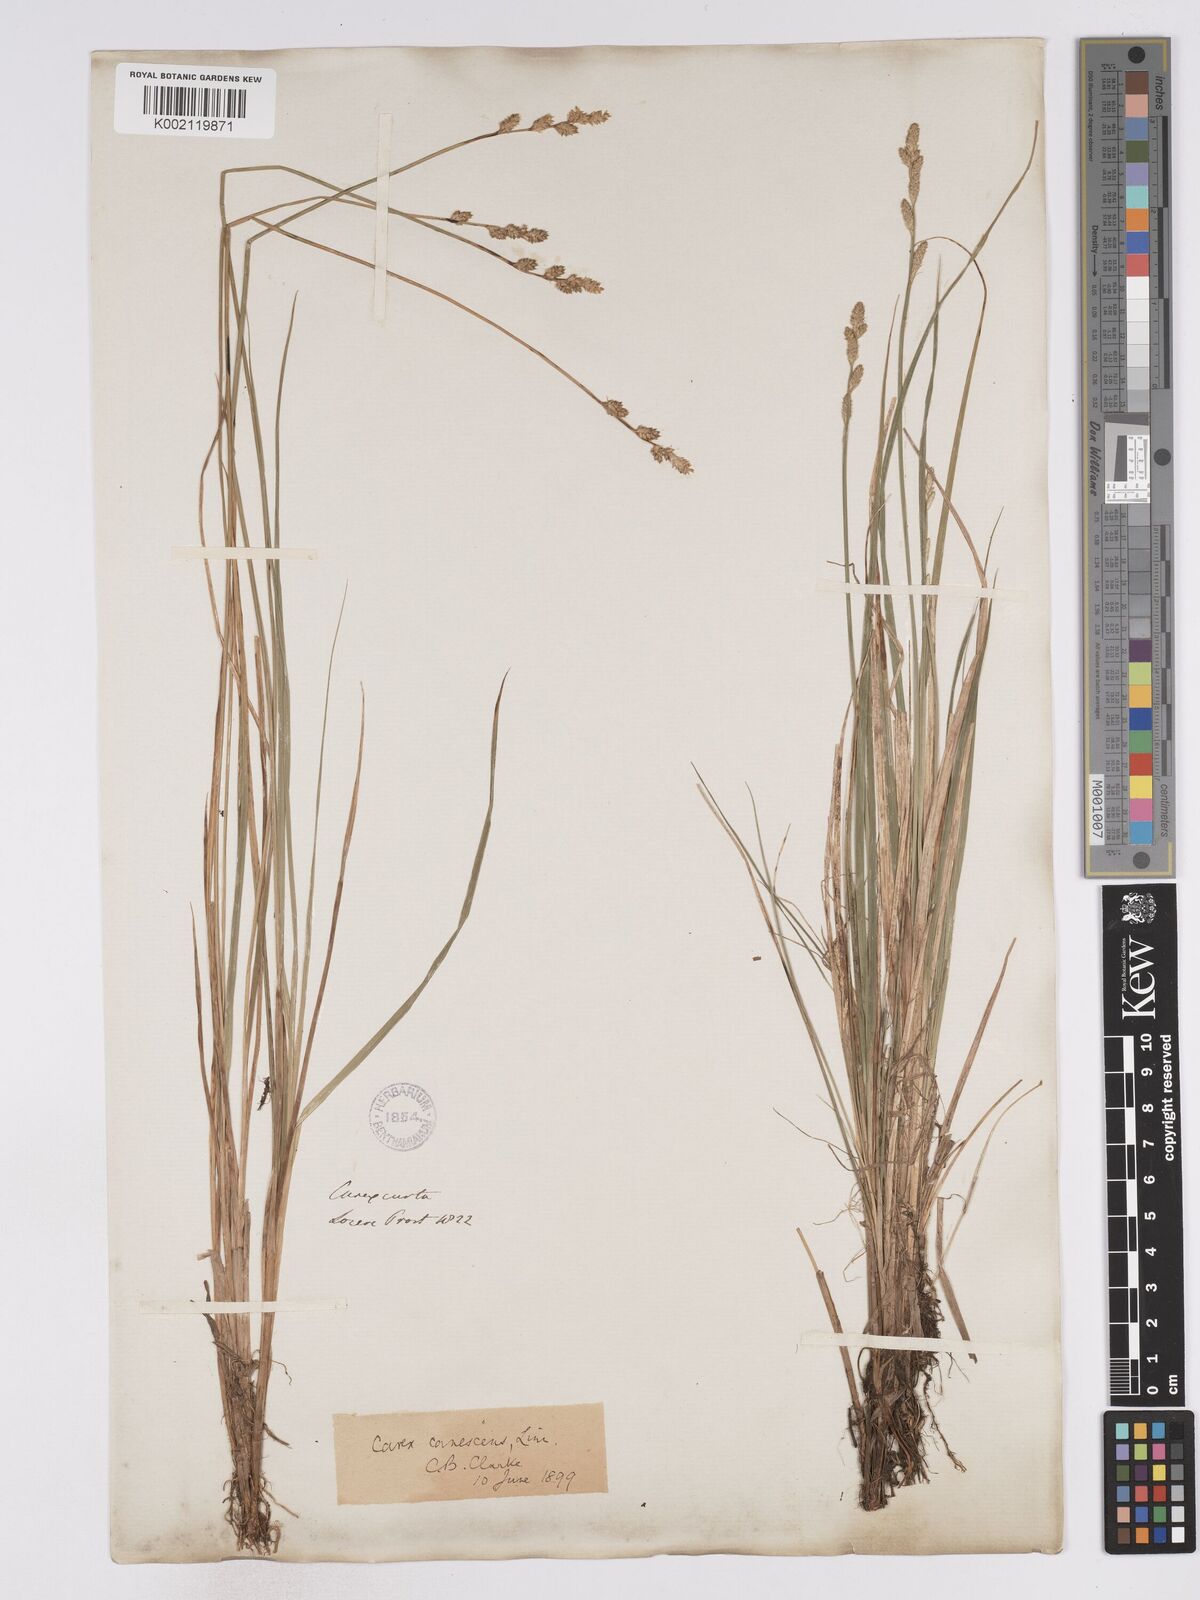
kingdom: Plantae
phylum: Tracheophyta
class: Liliopsida
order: Poales
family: Cyperaceae
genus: Carex
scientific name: Carex curta
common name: White sedge
